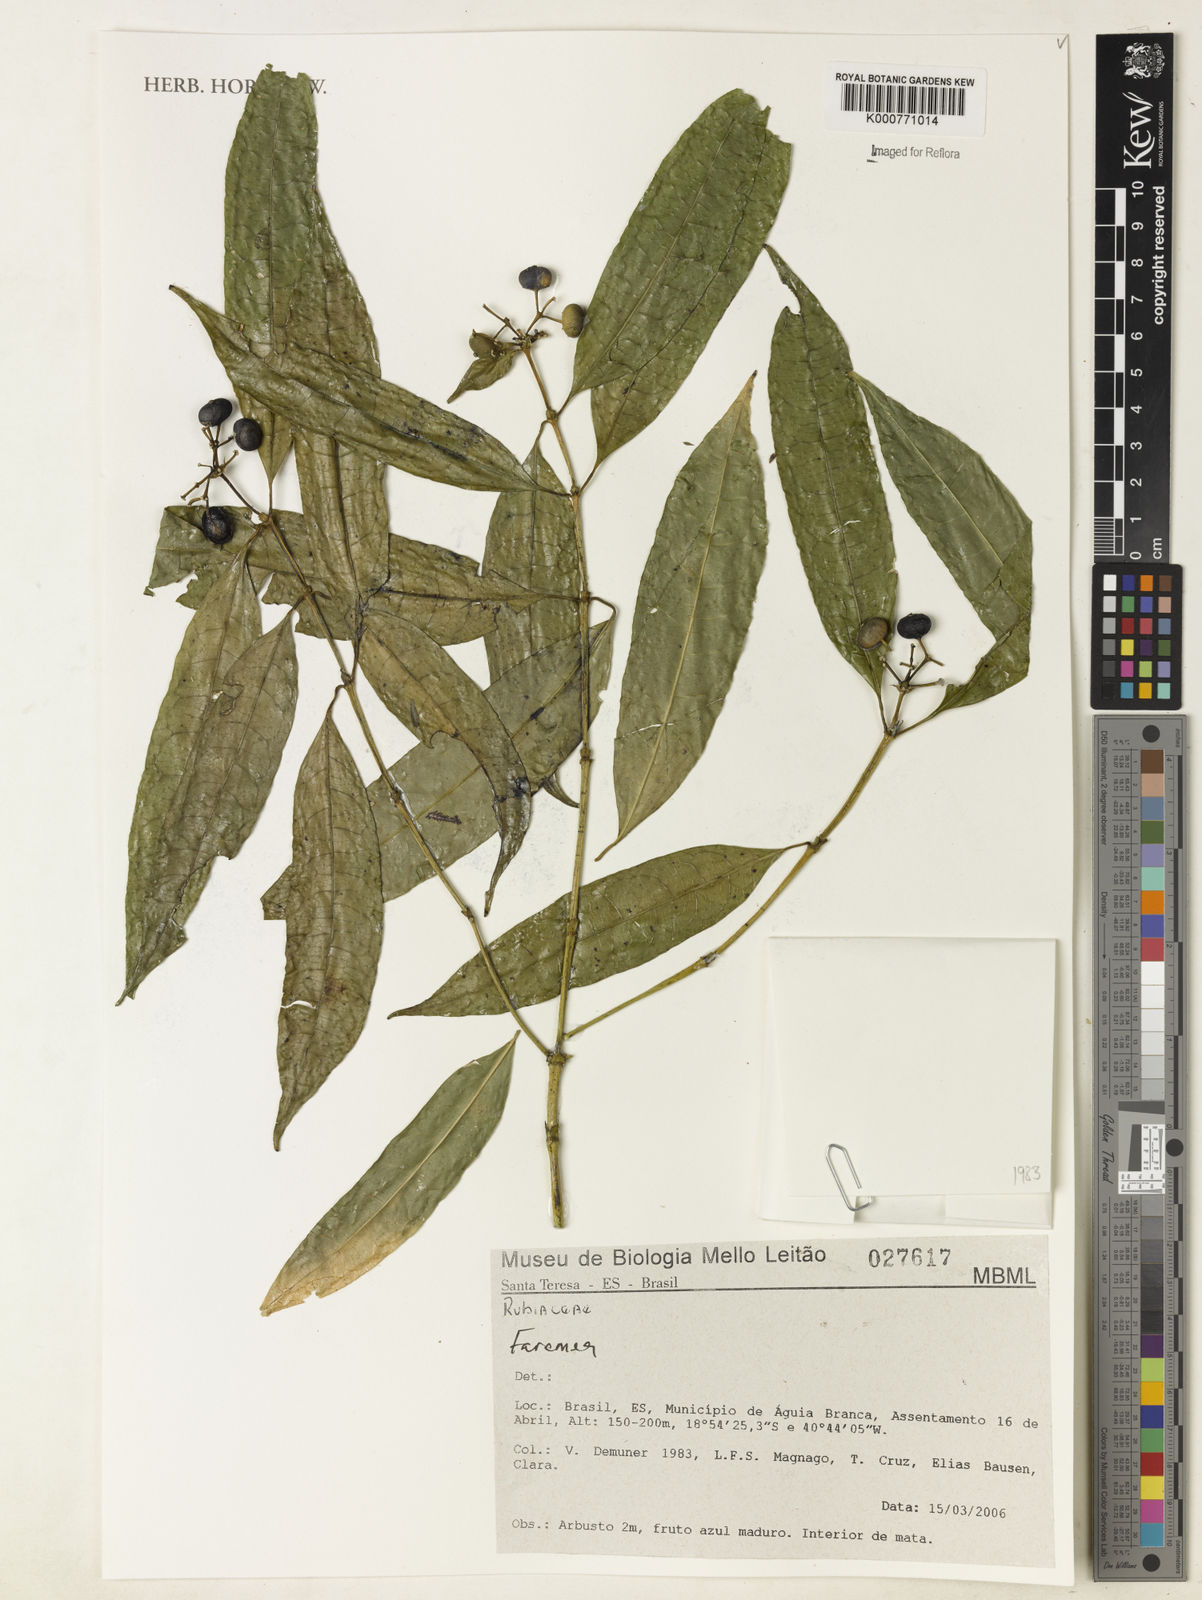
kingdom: Plantae
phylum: Tracheophyta
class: Magnoliopsida
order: Gentianales
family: Rubiaceae
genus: Faramea
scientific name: Faramea
